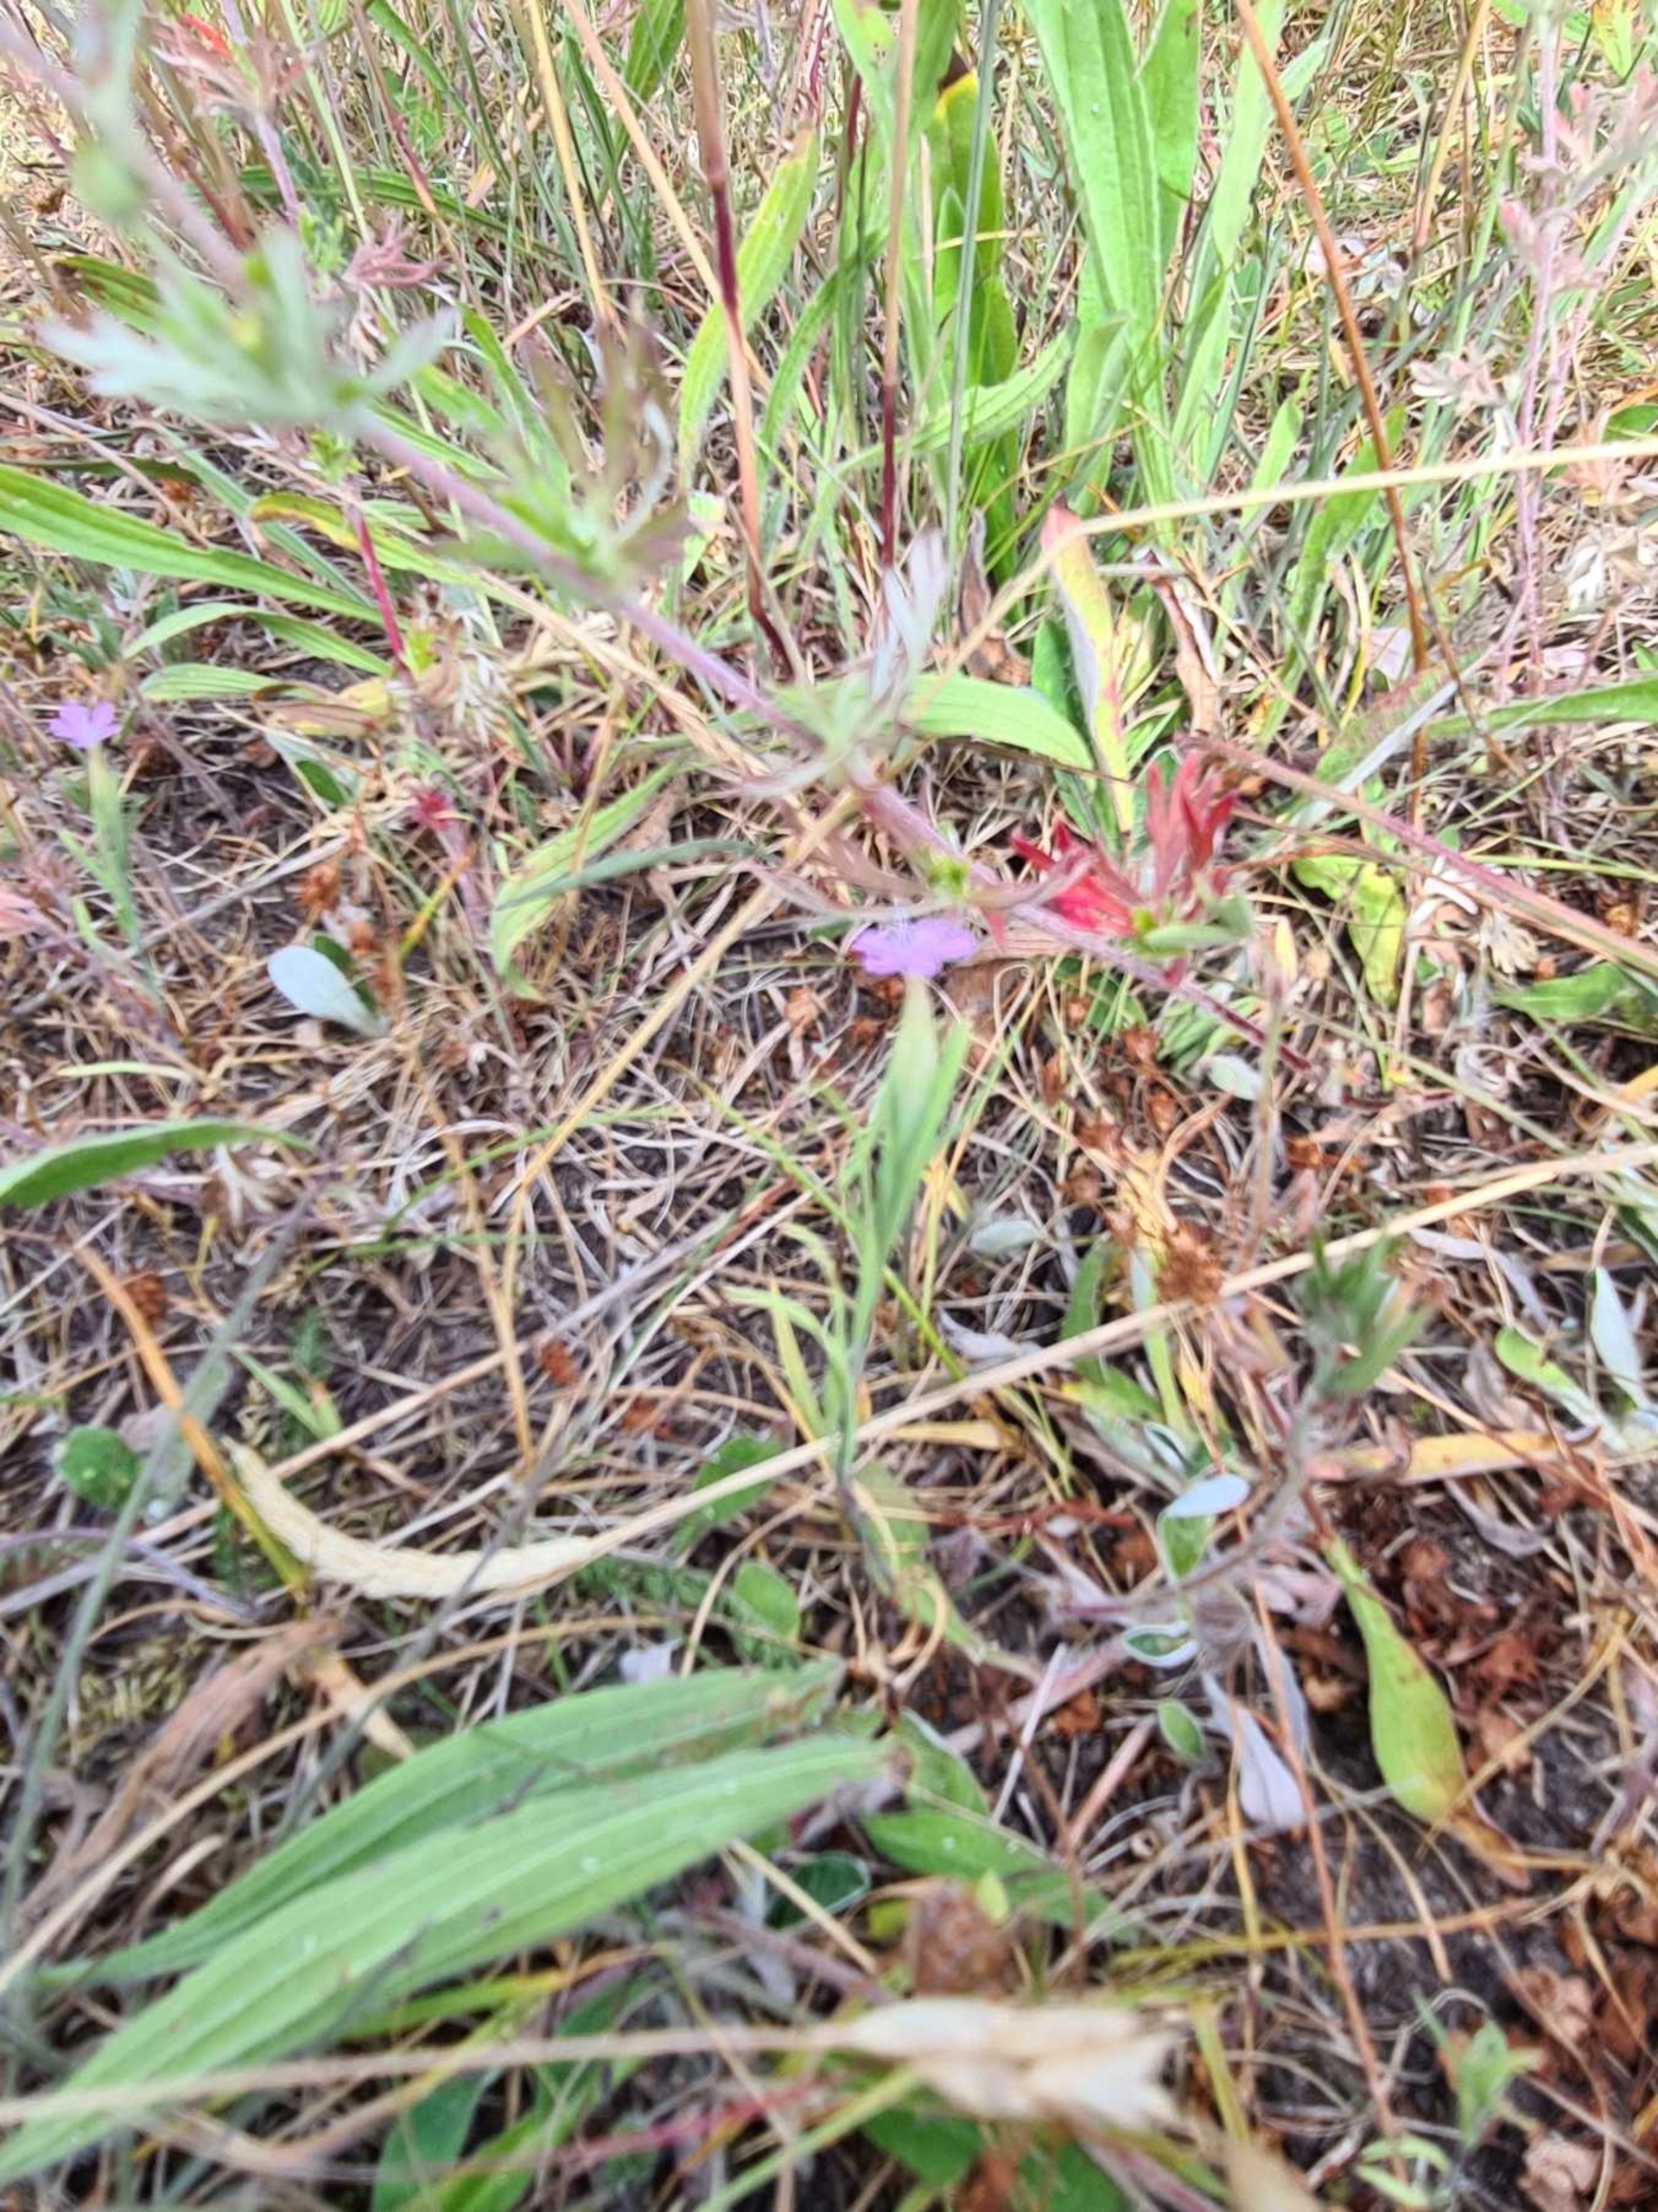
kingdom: Plantae
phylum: Tracheophyta
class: Magnoliopsida
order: Caryophyllales
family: Caryophyllaceae
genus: Petrorhagia
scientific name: Petrorhagia prolifera
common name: Knopnellike
